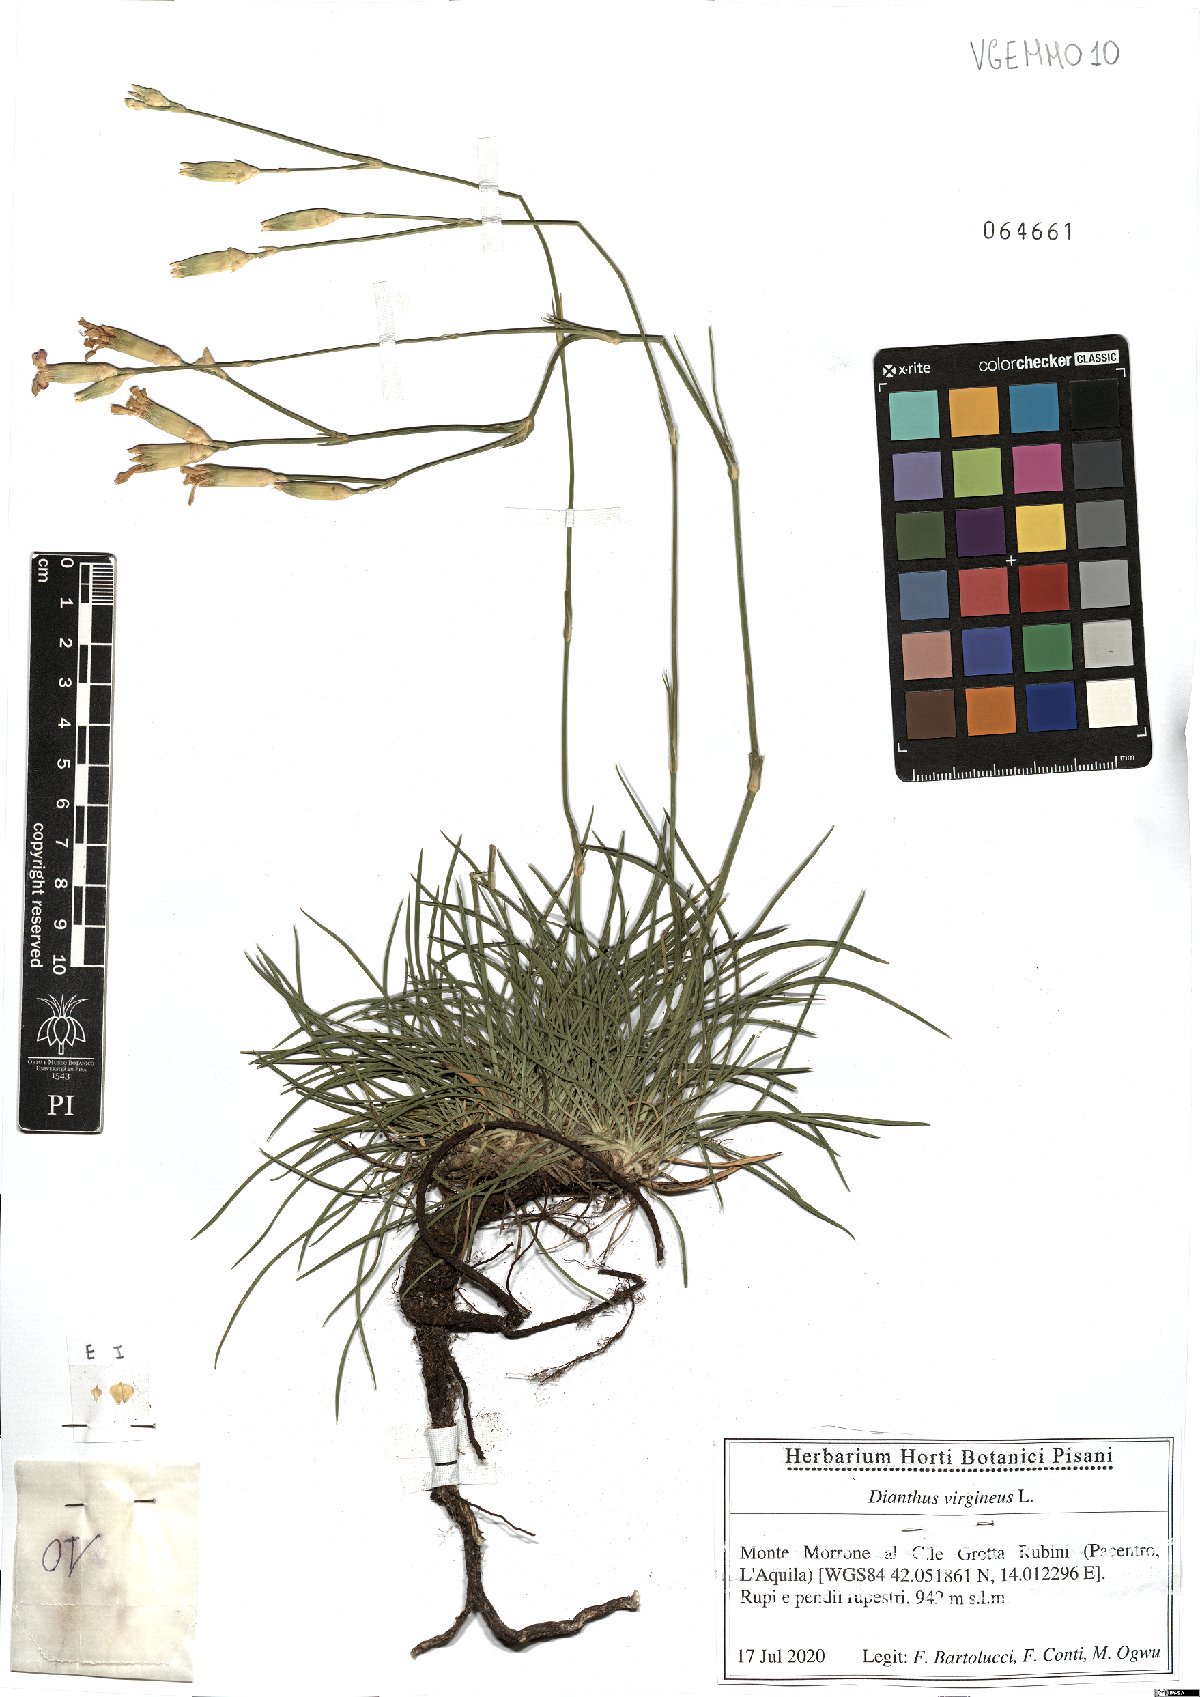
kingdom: Plantae
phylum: Tracheophyta
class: Magnoliopsida
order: Caryophyllales
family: Caryophyllaceae
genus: Dianthus
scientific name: Dianthus virgineus
